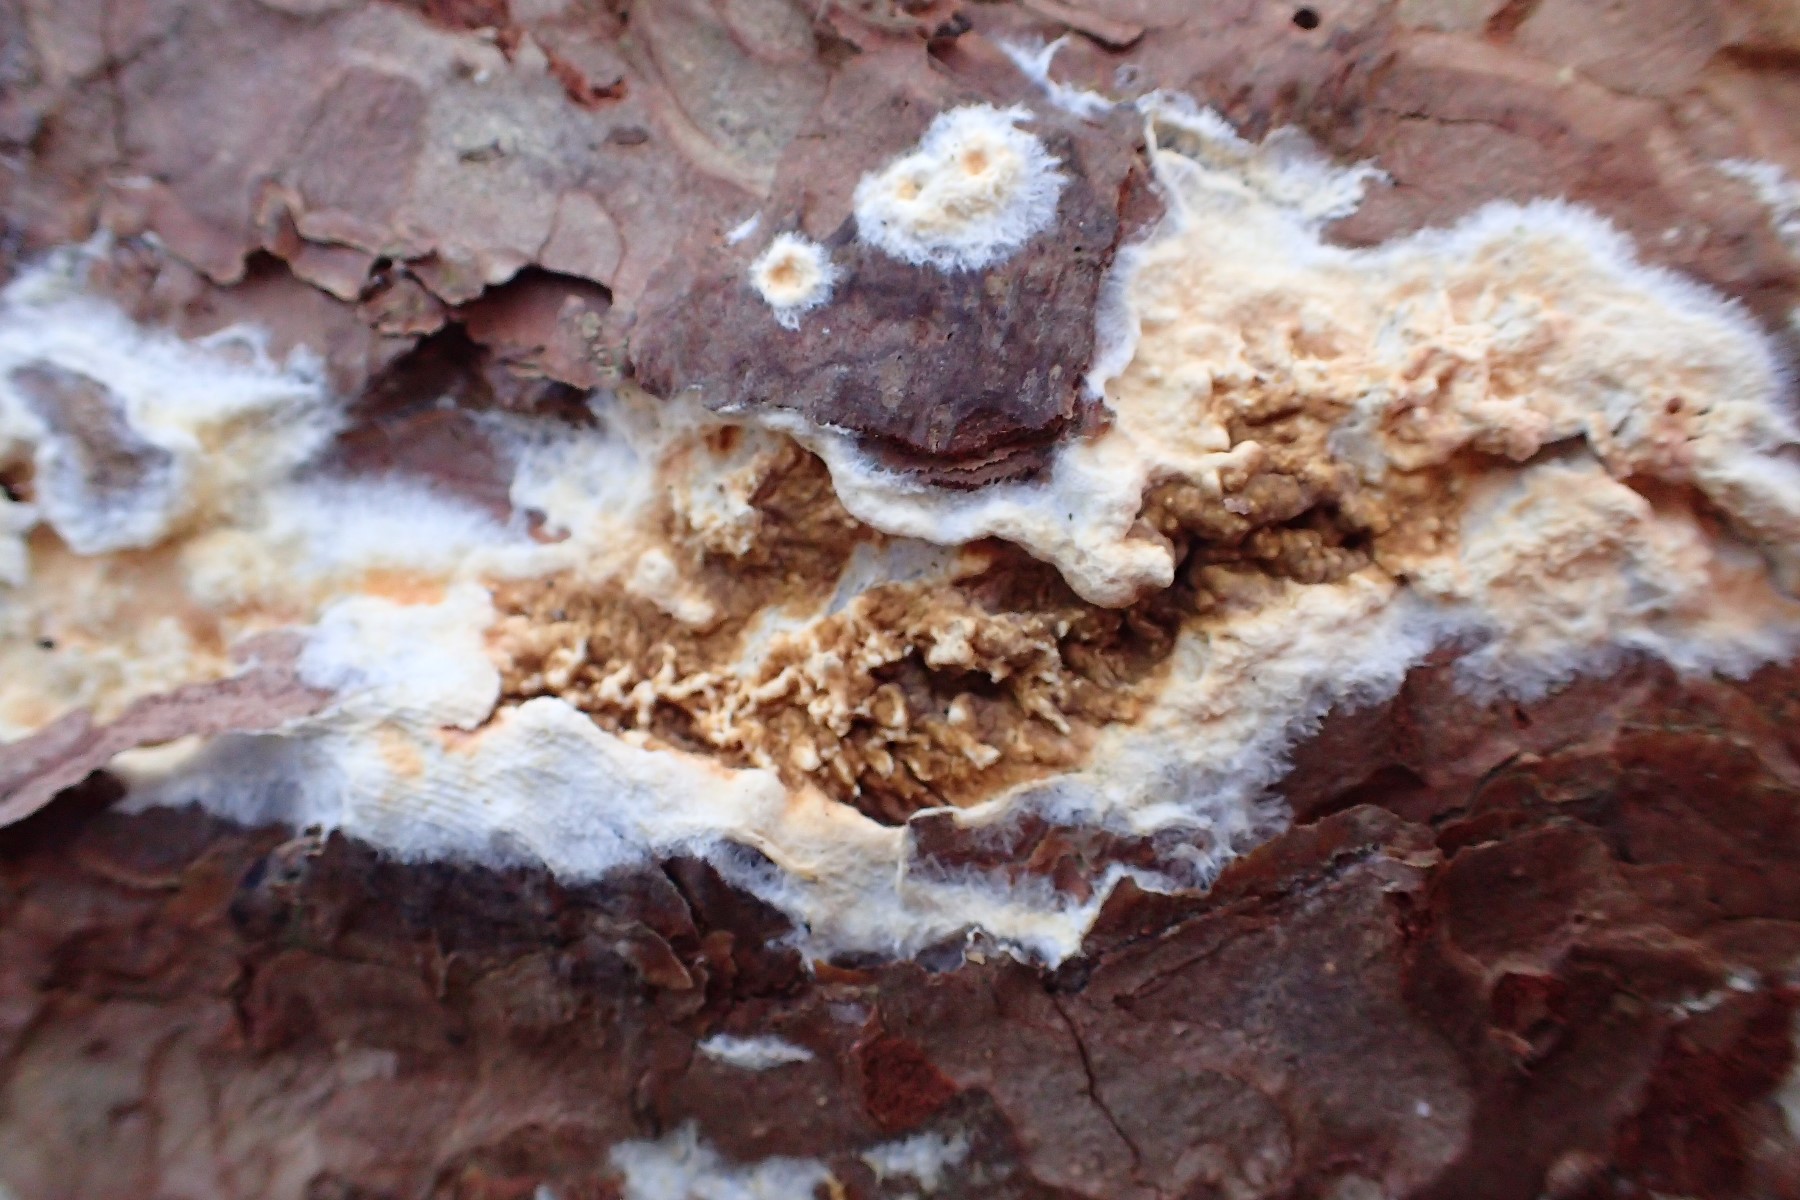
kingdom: Fungi
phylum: Basidiomycota
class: Agaricomycetes
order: Boletales
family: Coniophoraceae
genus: Coniophora
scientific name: Coniophora puteana
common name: gul tømmersvamp
